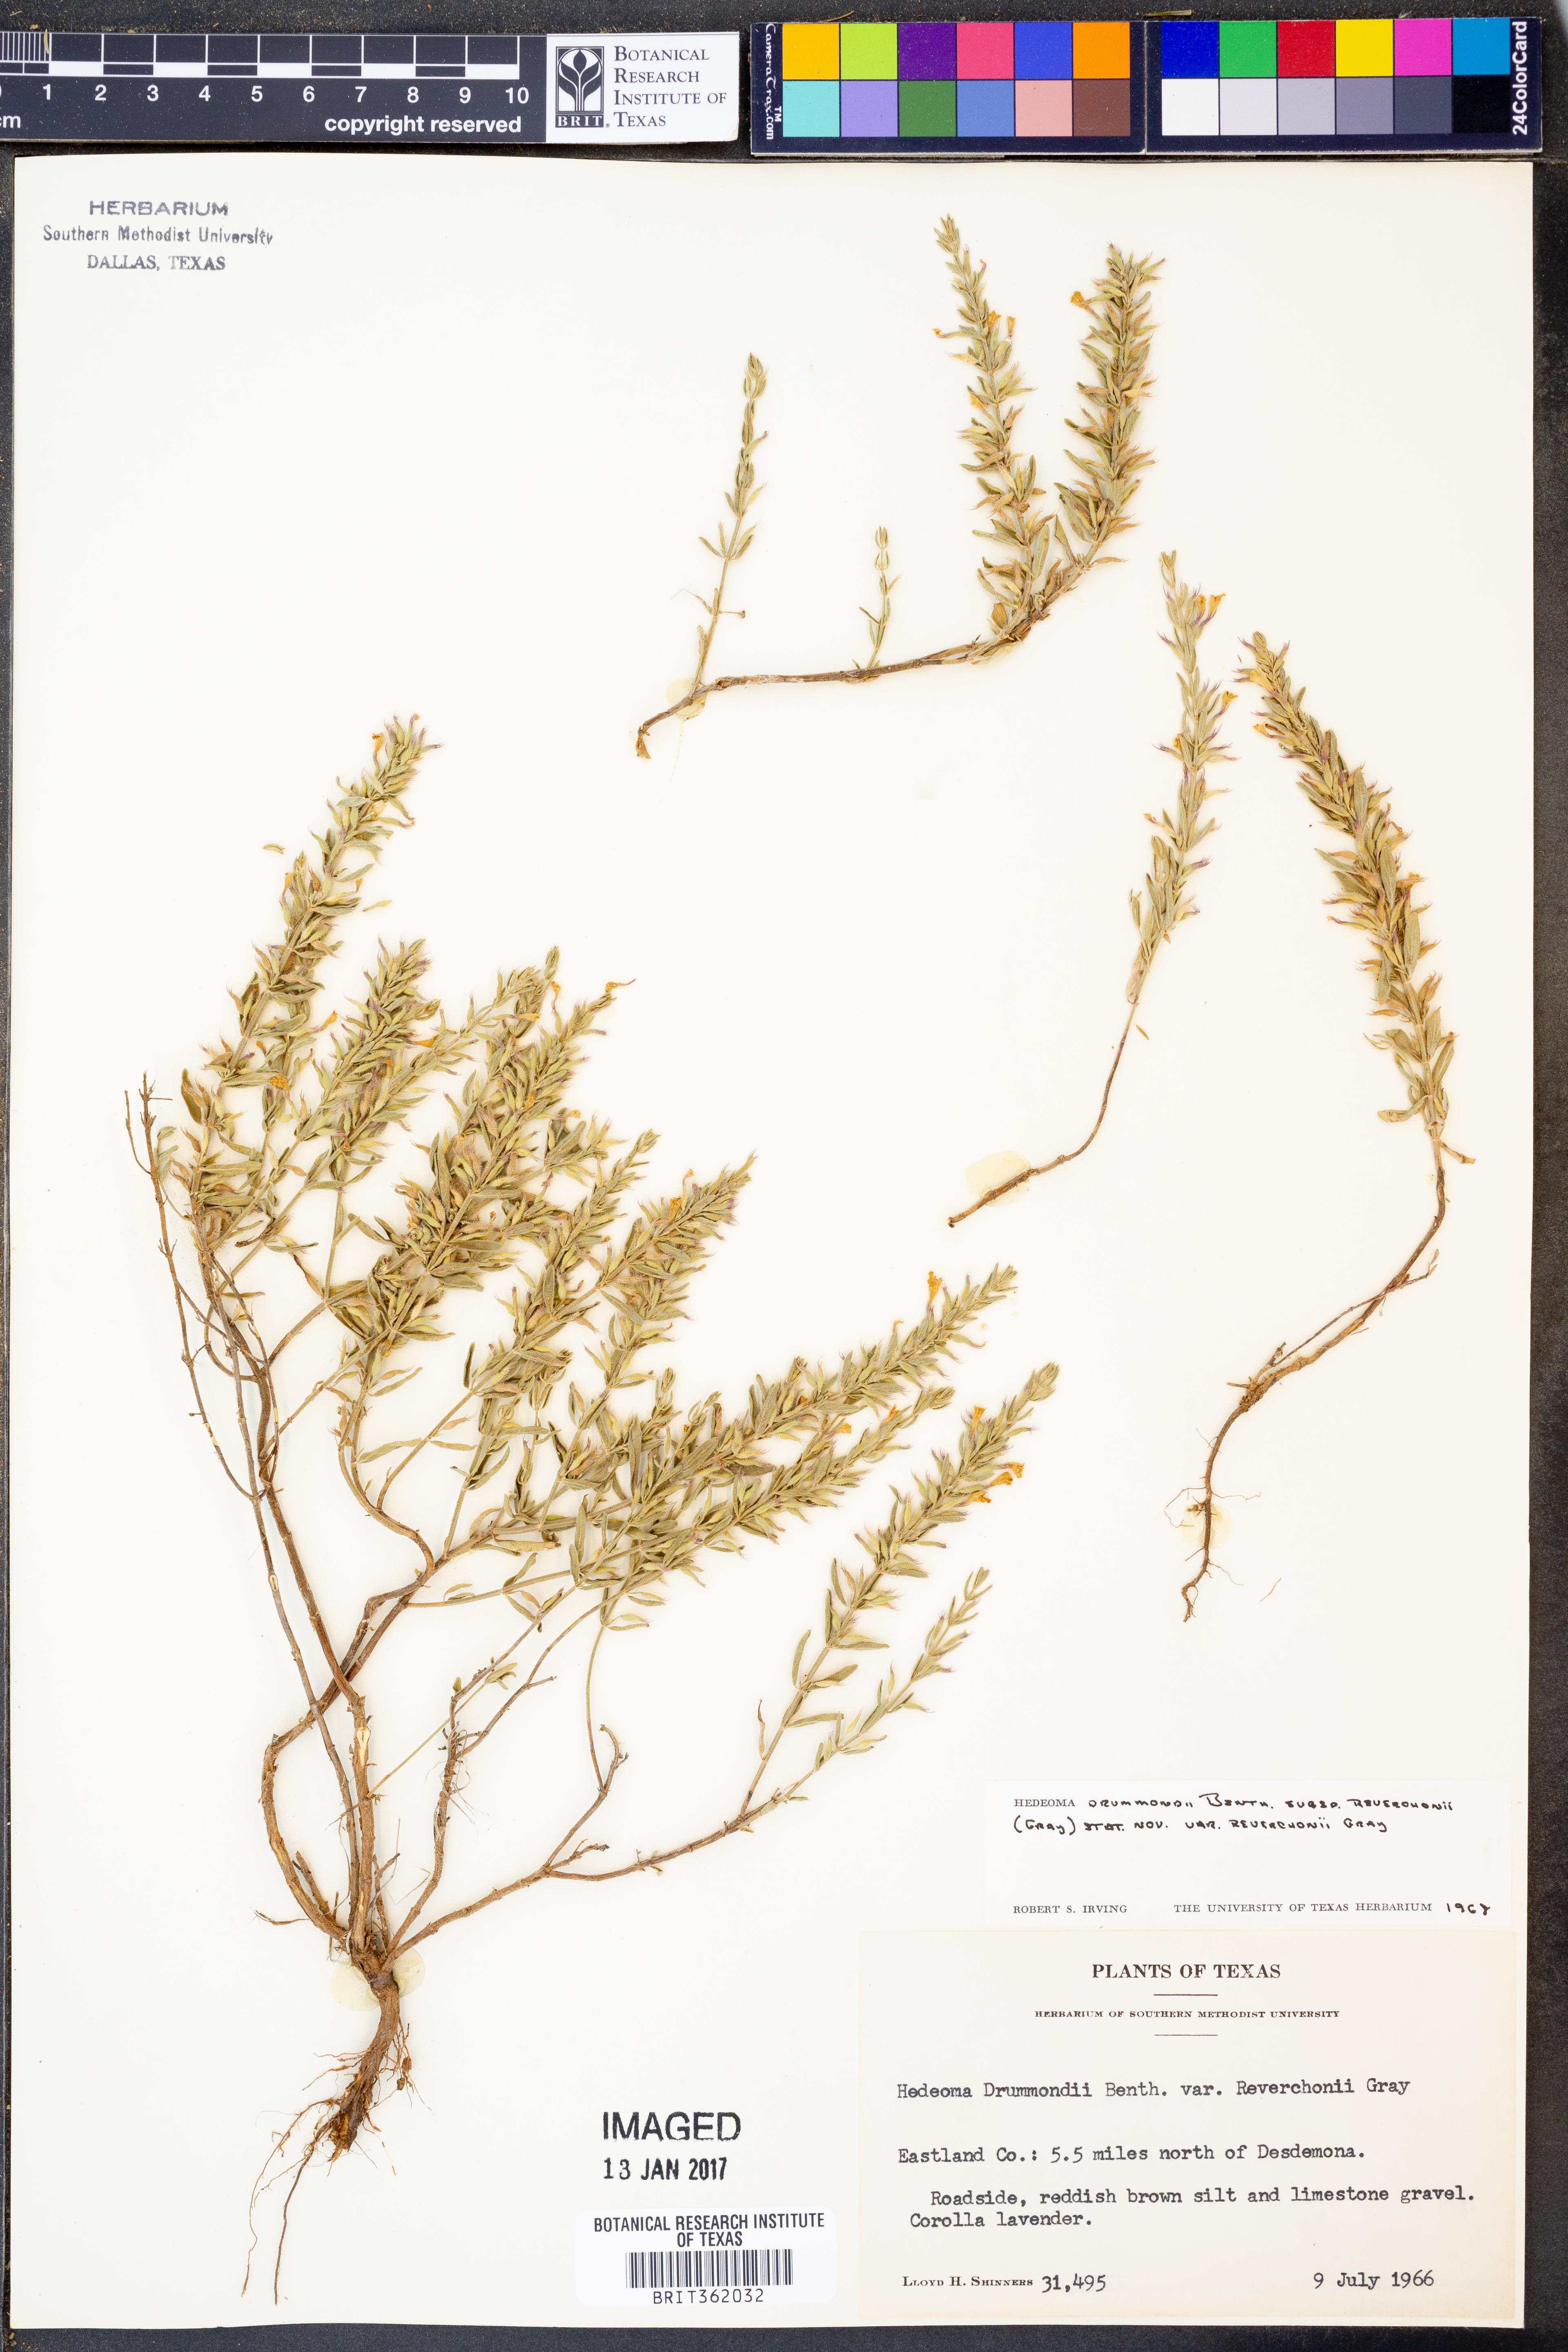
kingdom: Plantae
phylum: Tracheophyta
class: Magnoliopsida
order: Lamiales
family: Lamiaceae
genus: Hedeoma
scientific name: Hedeoma reverchonii
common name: Reverchon's false penny-royal
